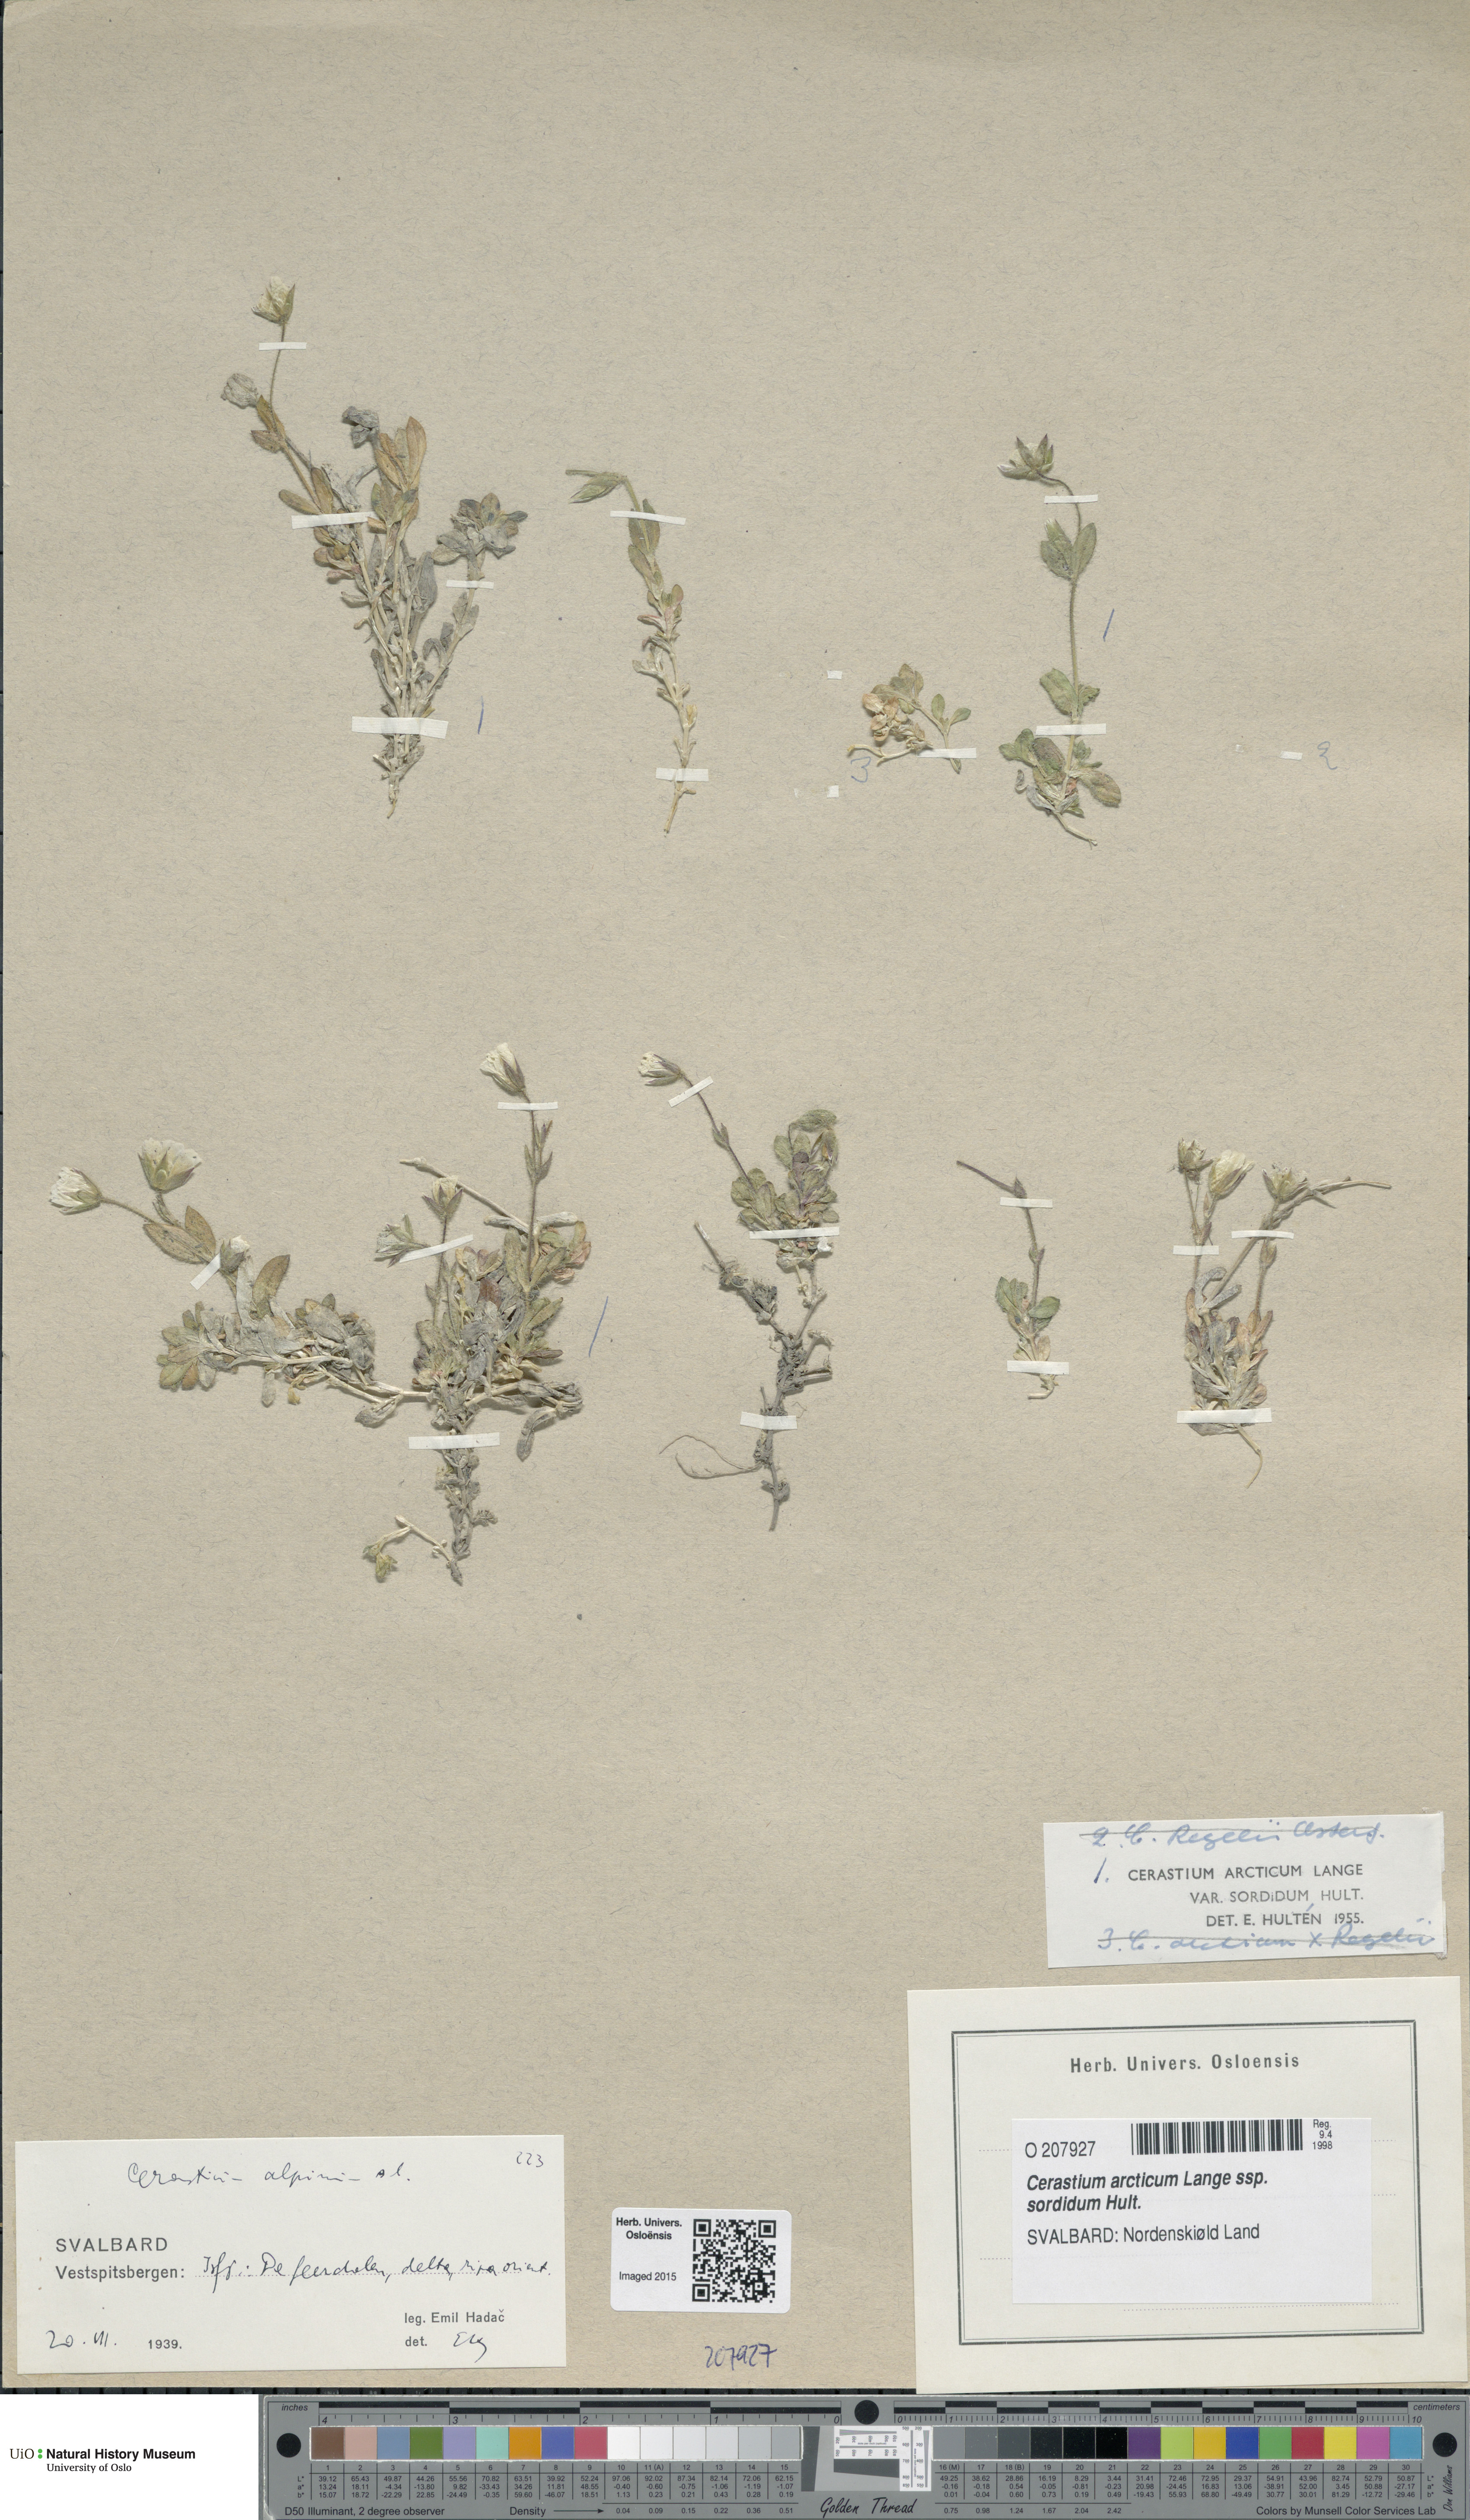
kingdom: Plantae
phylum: Tracheophyta
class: Magnoliopsida
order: Caryophyllales
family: Caryophyllaceae
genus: Cerastium
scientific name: Cerastium sordidum
